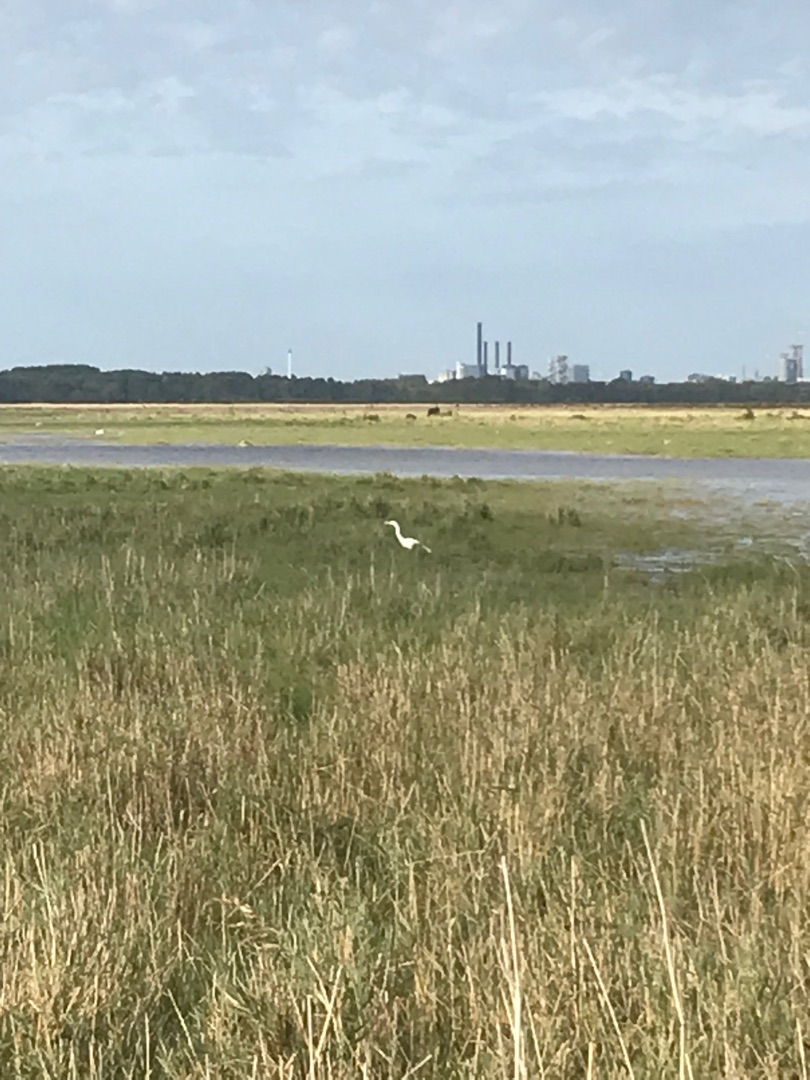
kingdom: Animalia
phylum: Chordata
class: Aves
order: Pelecaniformes
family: Ardeidae
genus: Ardea
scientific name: Ardea alba
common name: Sølvhejre
